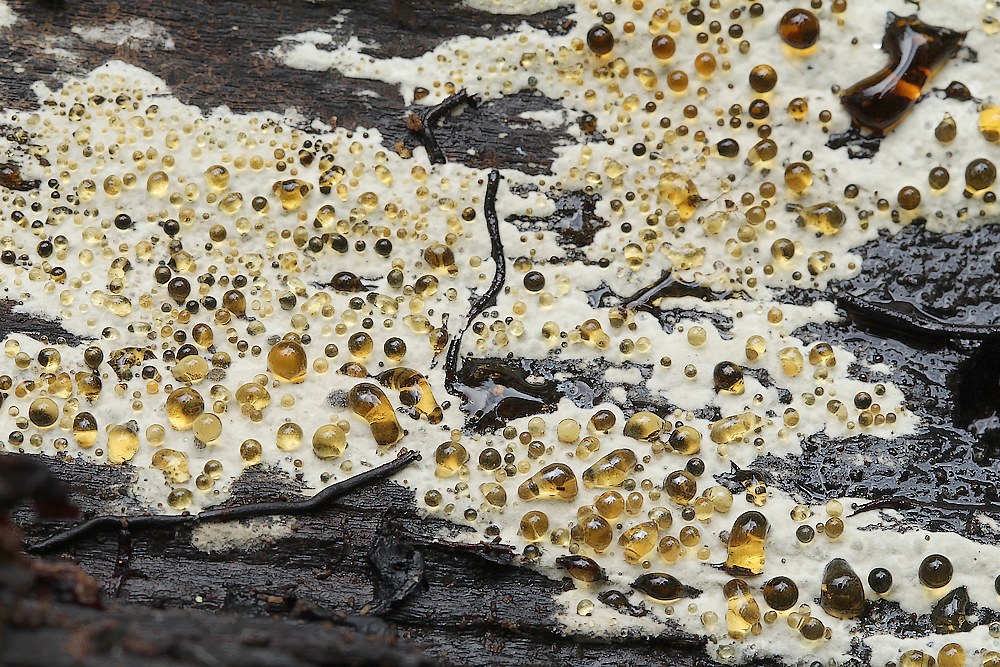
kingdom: Fungi
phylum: Basidiomycota
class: Agaricomycetes
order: Corticiales
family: Corticiaceae
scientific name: Corticiaceae
